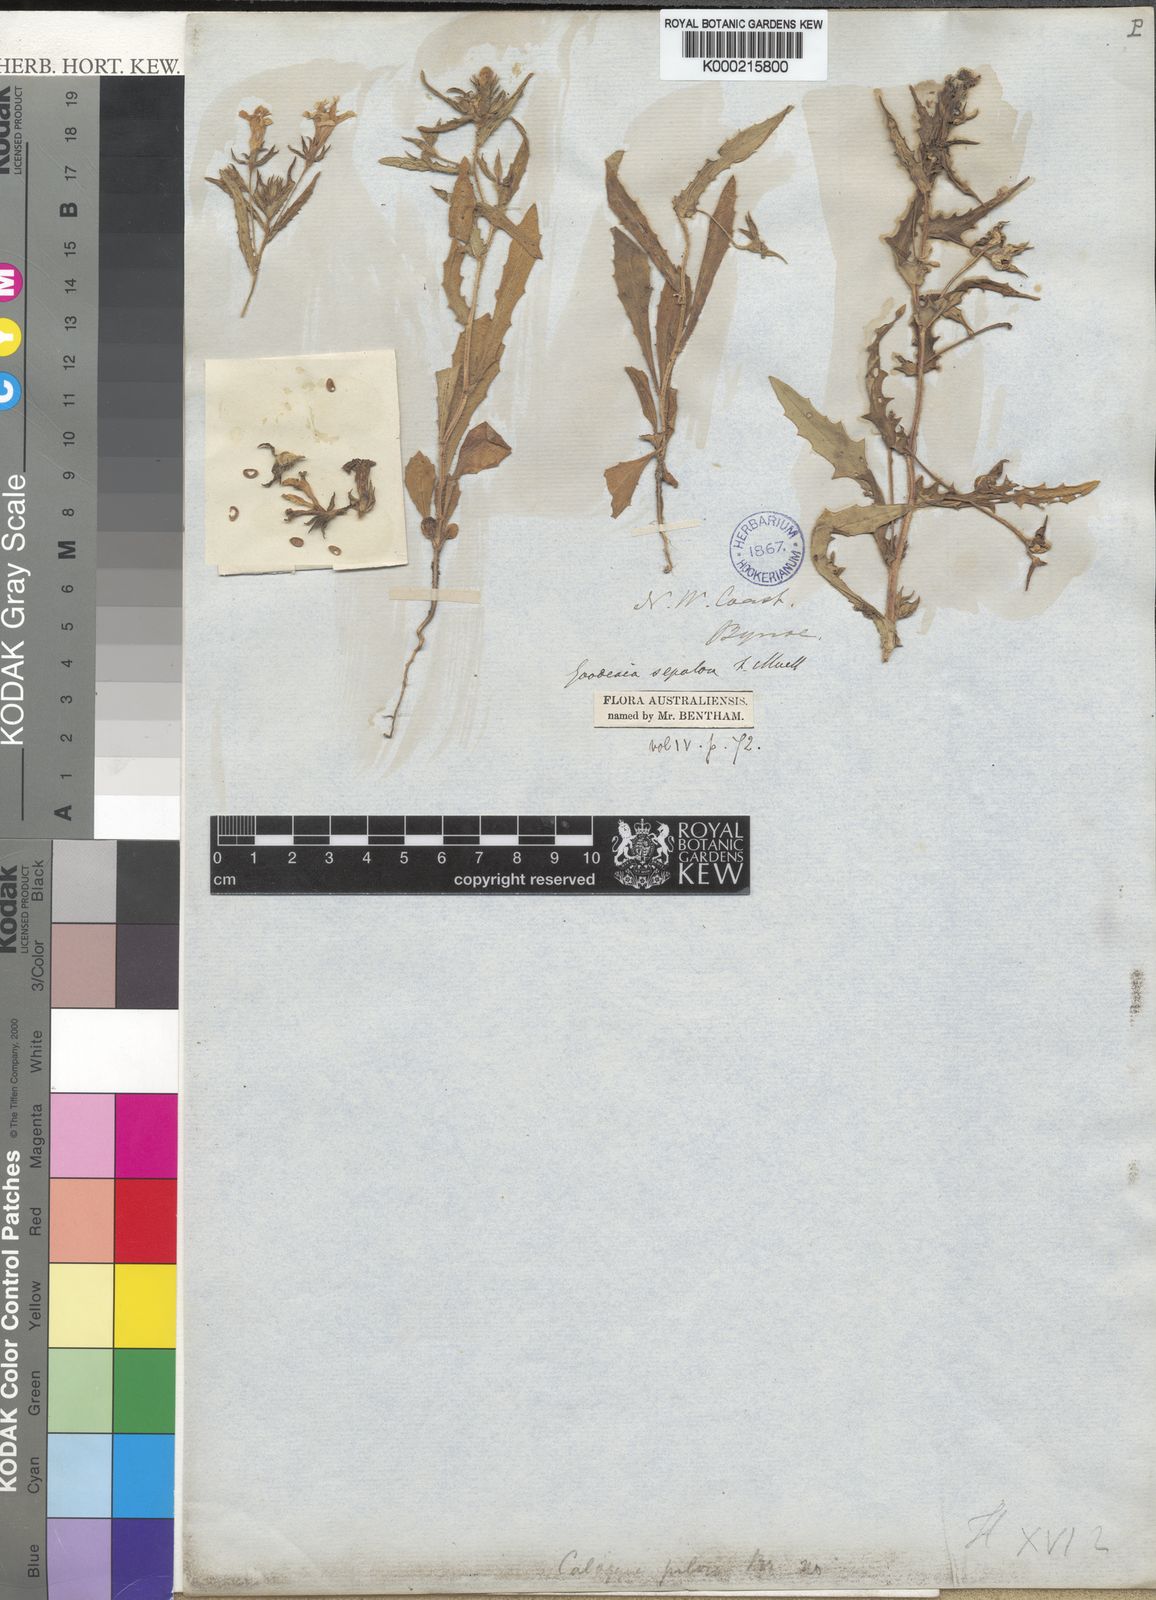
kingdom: Plantae
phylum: Tracheophyta
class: Magnoliopsida
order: Asterales
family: Goodeniaceae
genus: Goodenia
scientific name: Goodenia sepalosa
